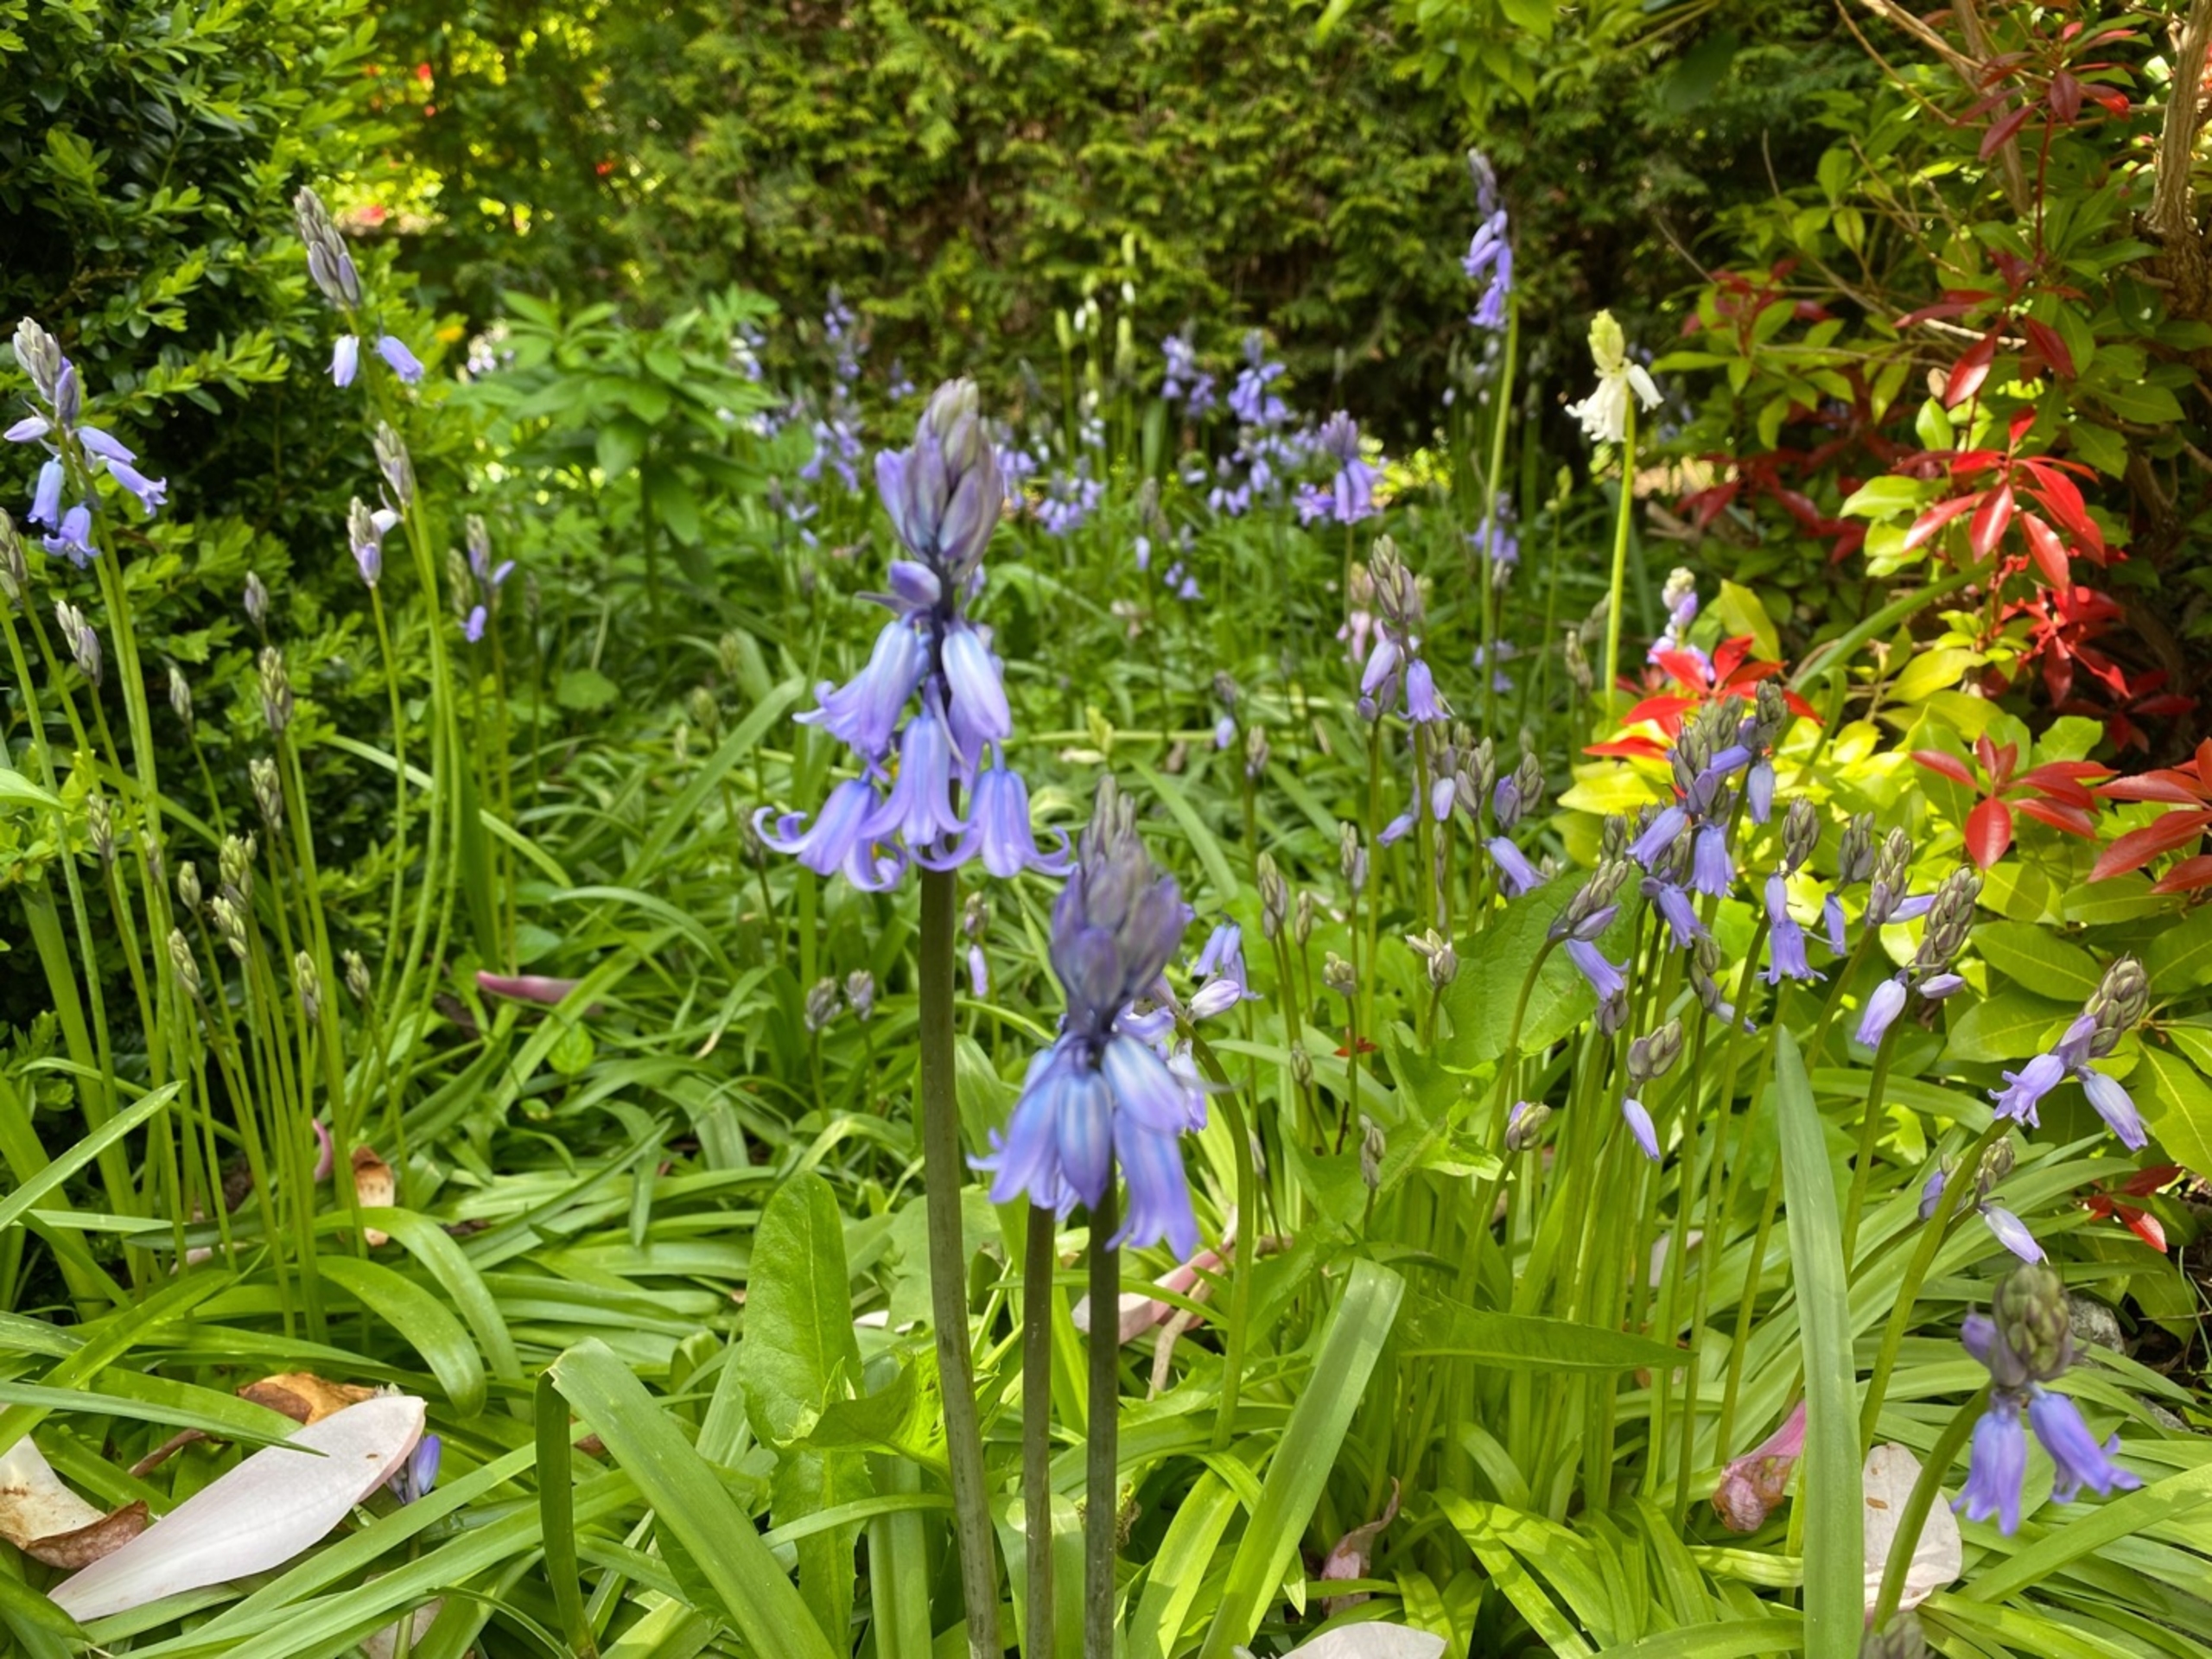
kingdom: Plantae
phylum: Tracheophyta
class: Liliopsida
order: Asparagales
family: Asparagaceae
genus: Hyacinthoides
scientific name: Hyacinthoides massartiana
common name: Hybrid-klokkeskilla
